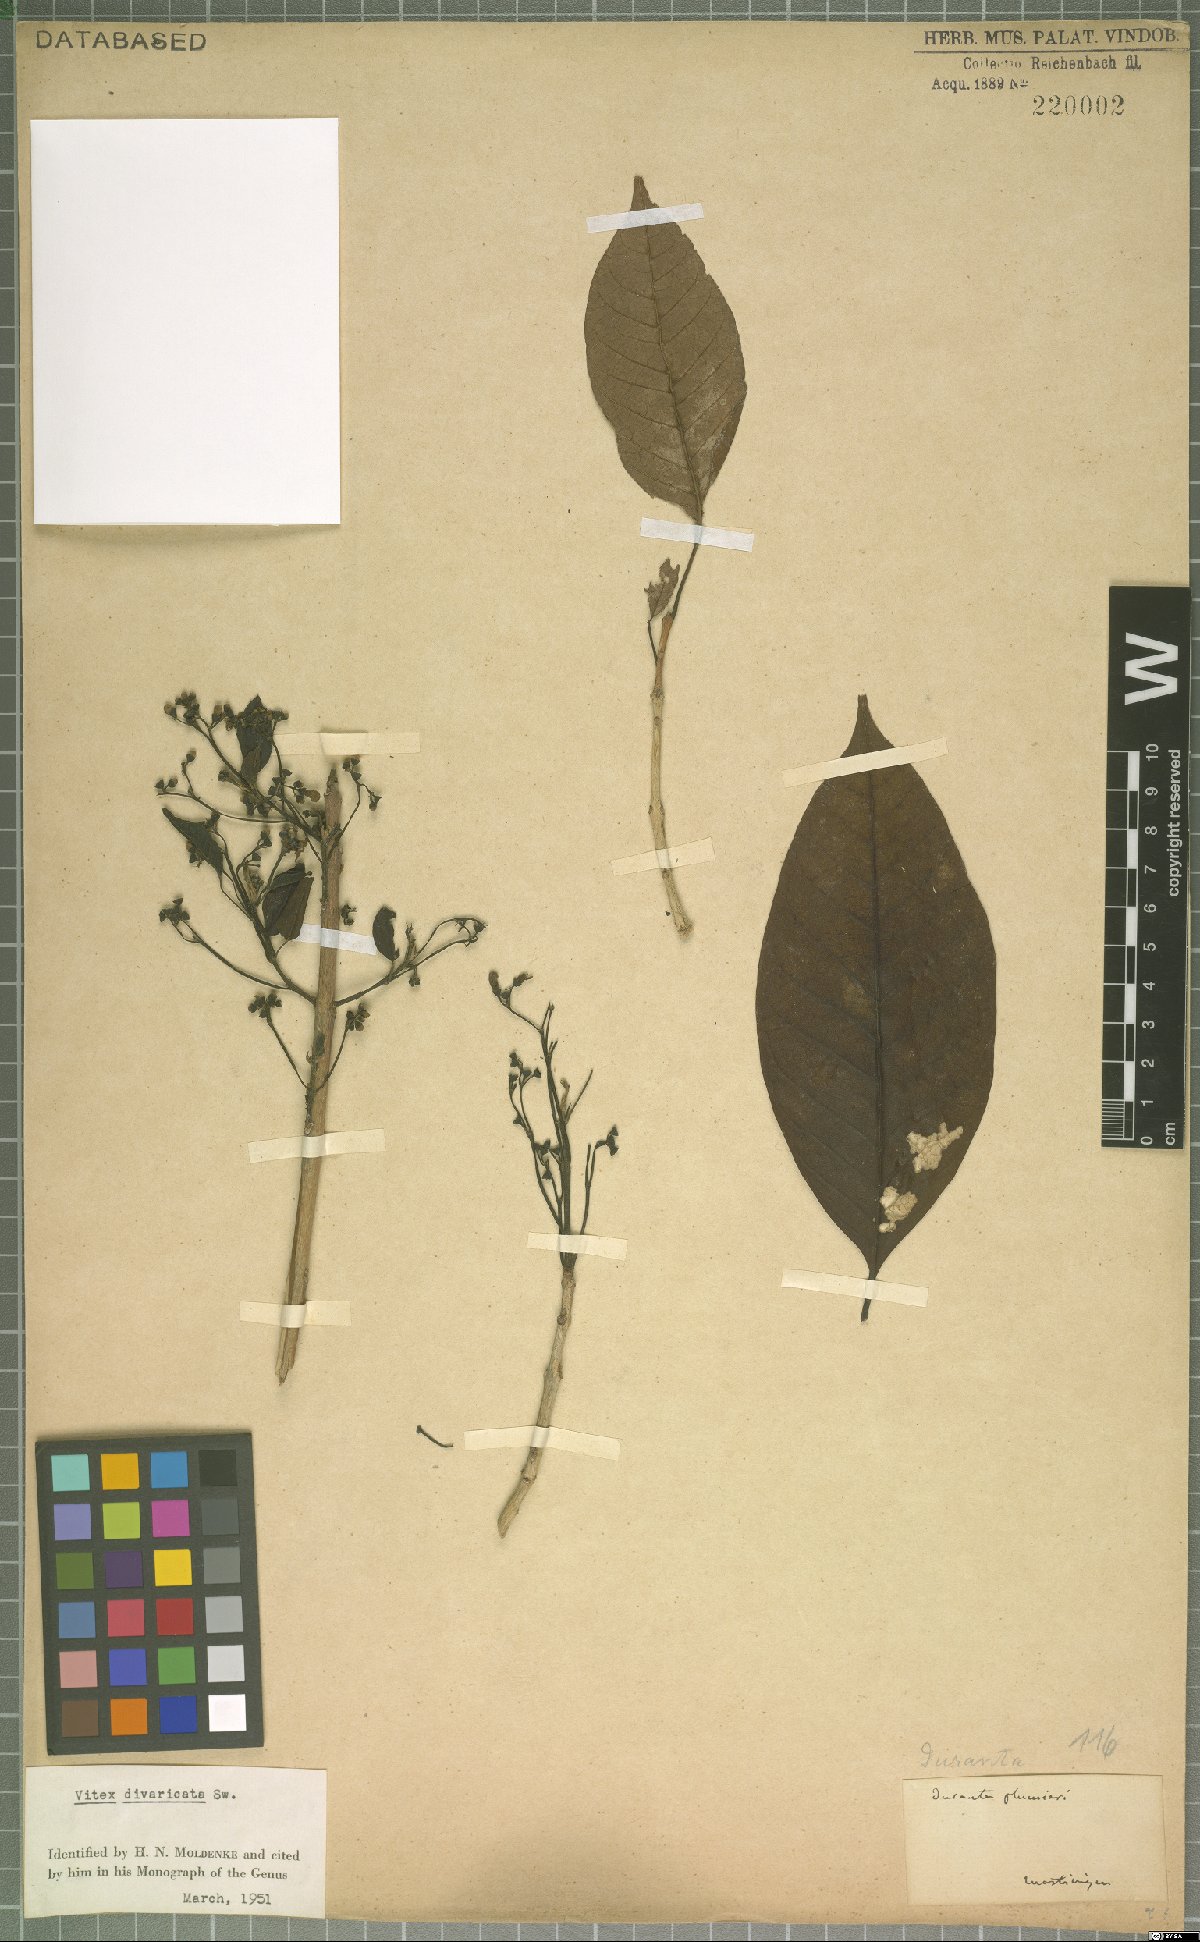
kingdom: Plantae
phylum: Tracheophyta
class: Magnoliopsida
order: Lamiales
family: Lamiaceae
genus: Vitex
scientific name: Vitex divaricata
